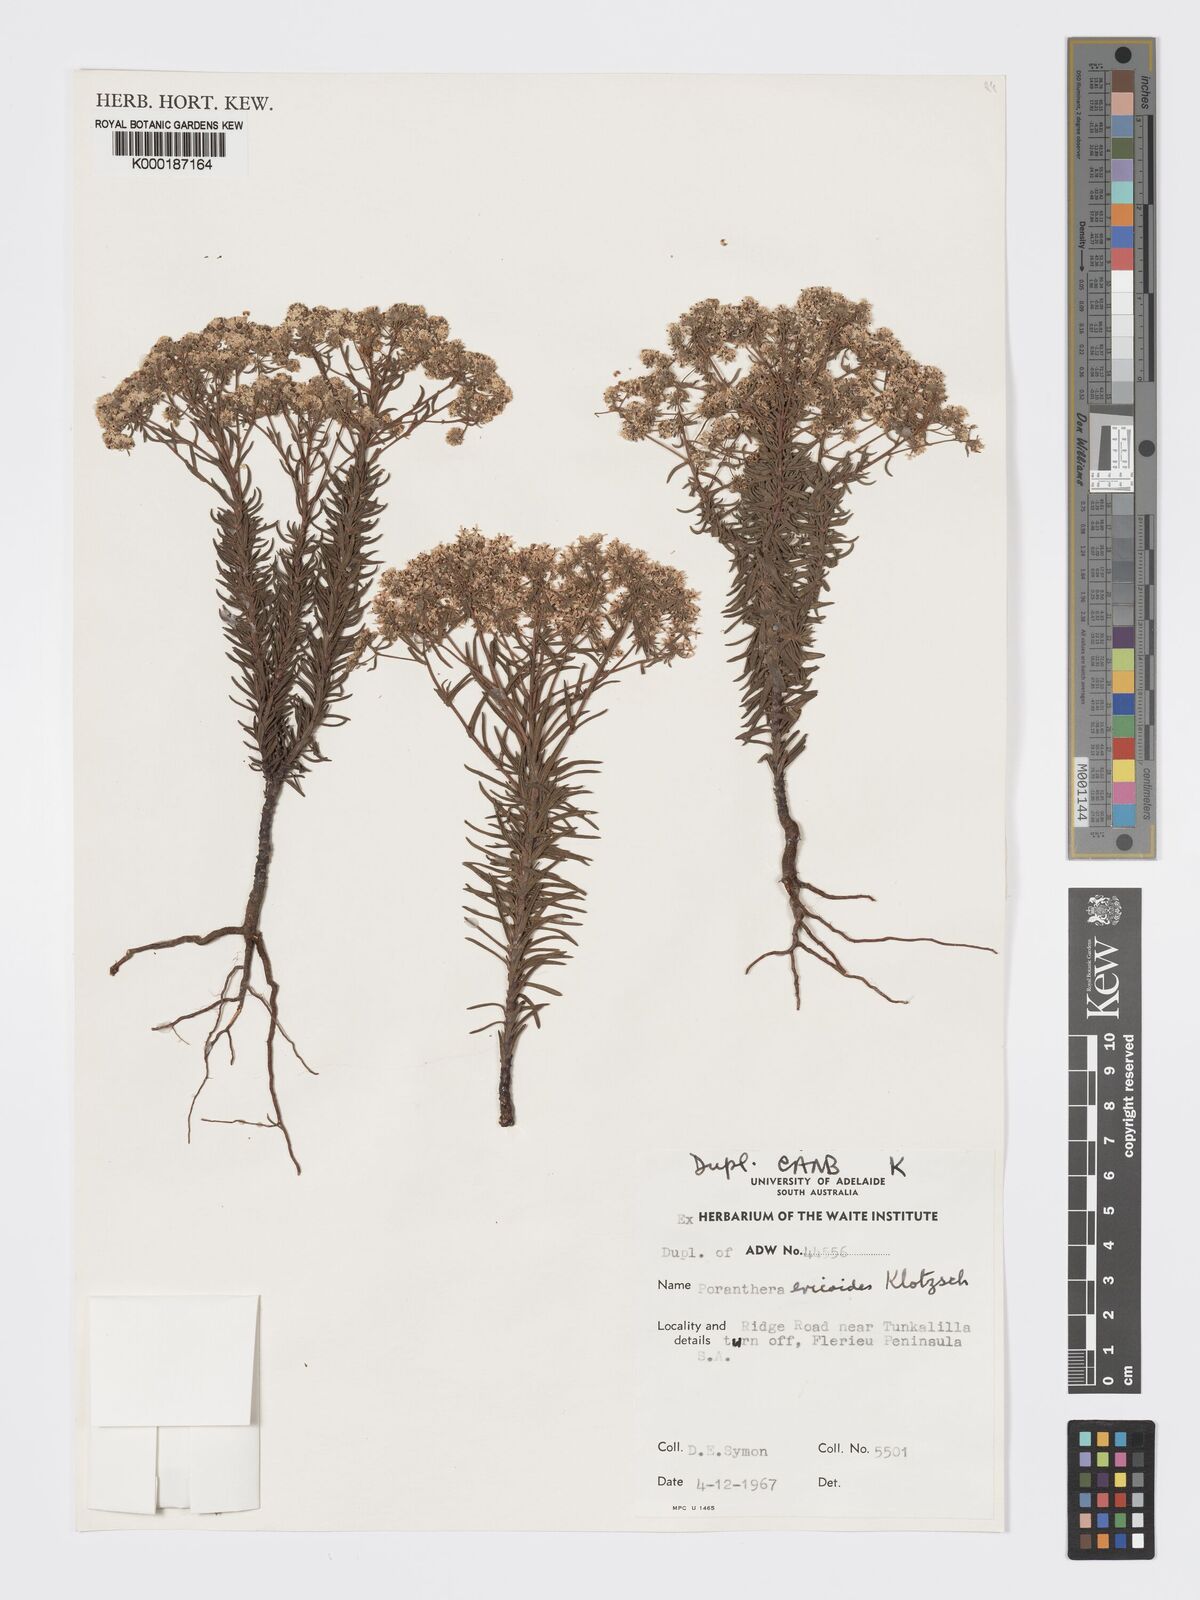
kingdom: Plantae
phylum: Tracheophyta
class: Magnoliopsida
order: Malpighiales
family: Phyllanthaceae
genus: Poranthera
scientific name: Poranthera ericoides
